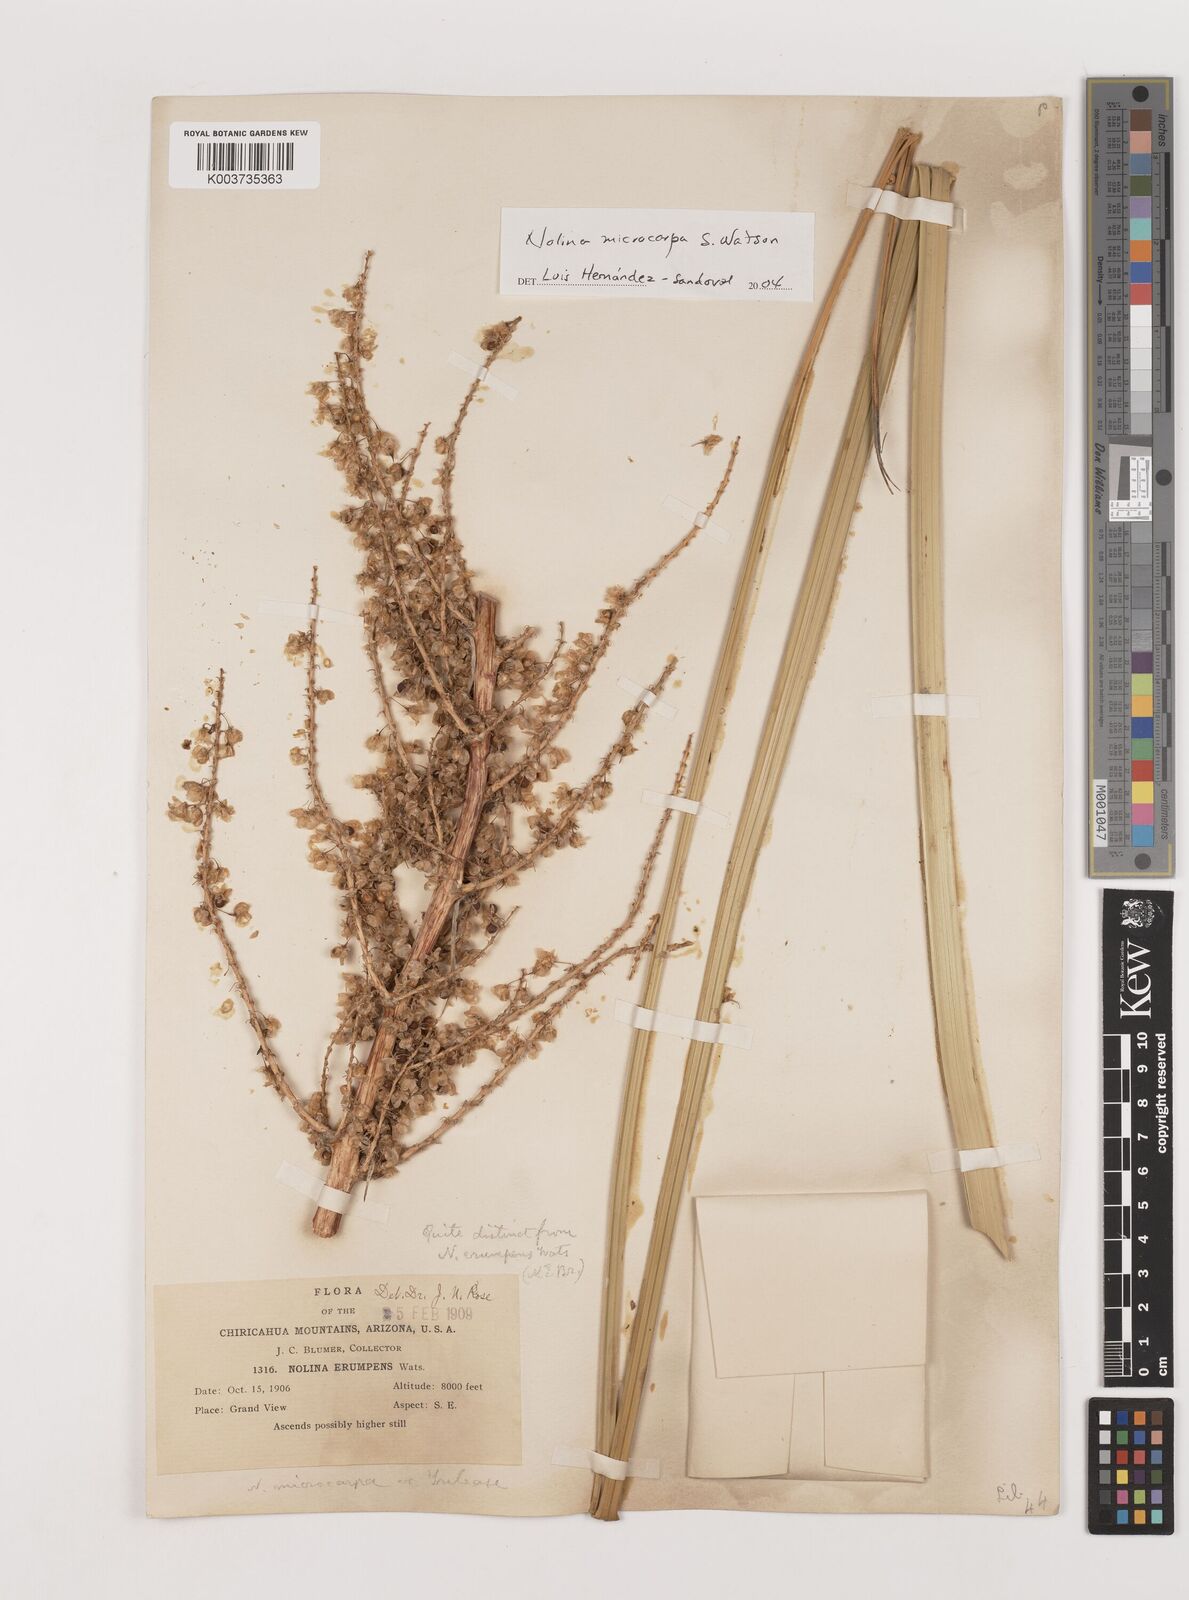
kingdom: Plantae
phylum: Tracheophyta
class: Liliopsida
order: Asparagales
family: Asparagaceae
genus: Nolina
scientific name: Nolina microcarpa
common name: Bear-grass
